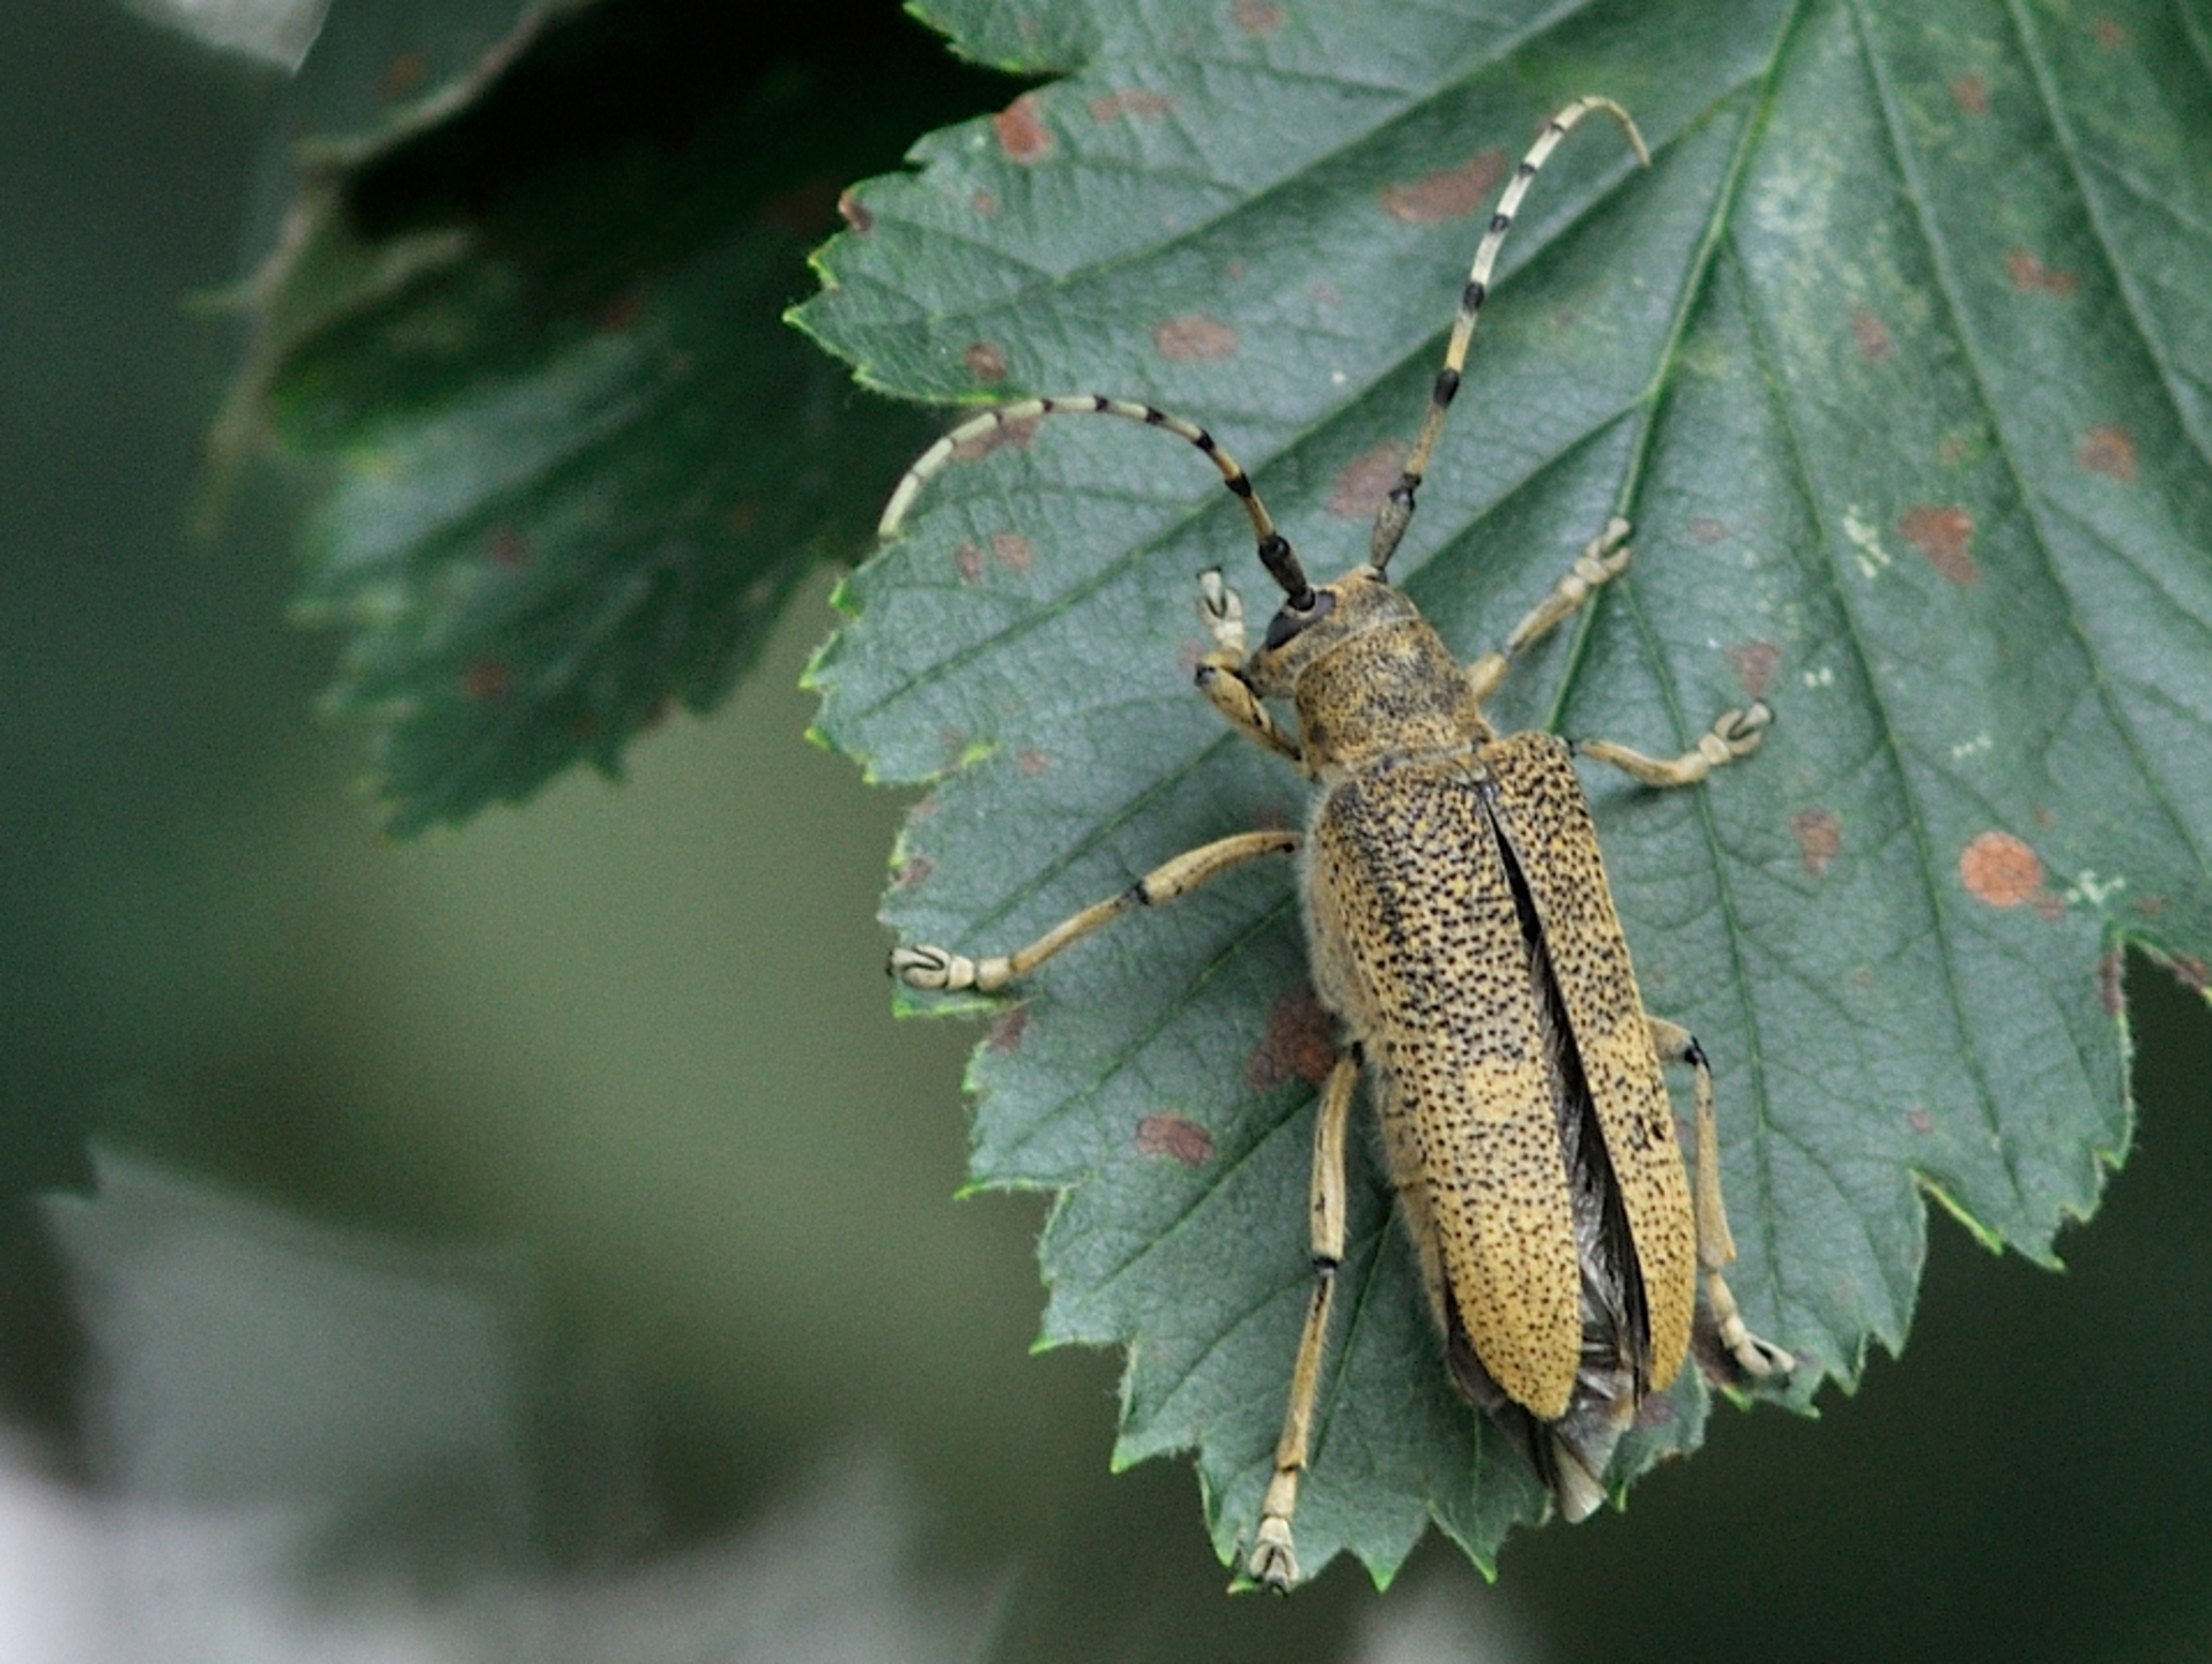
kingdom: Animalia
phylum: Arthropoda
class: Insecta
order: Coleoptera
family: Cerambycidae
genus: Saperda
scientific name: Saperda carcharias
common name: Poppelbuk
